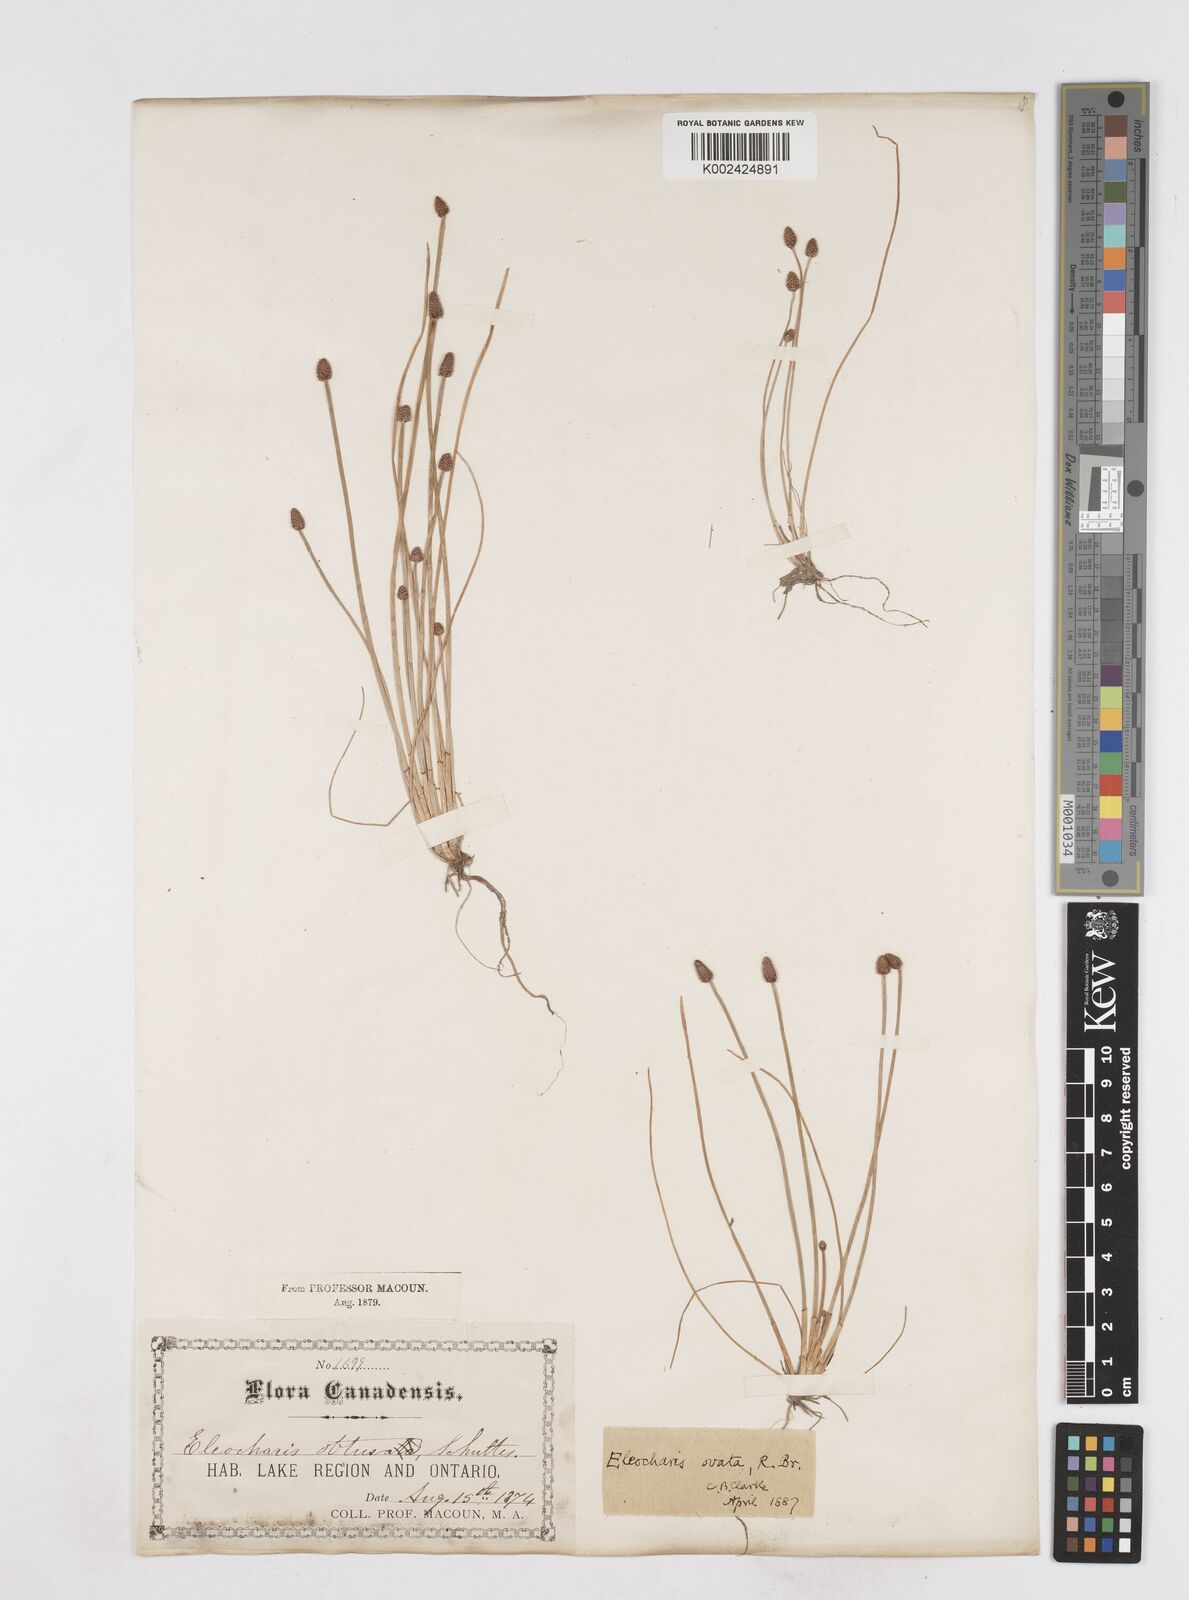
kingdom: Plantae
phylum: Tracheophyta
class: Liliopsida
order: Poales
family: Cyperaceae
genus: Eleocharis
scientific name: Eleocharis ovata
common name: Oval spike-rush
